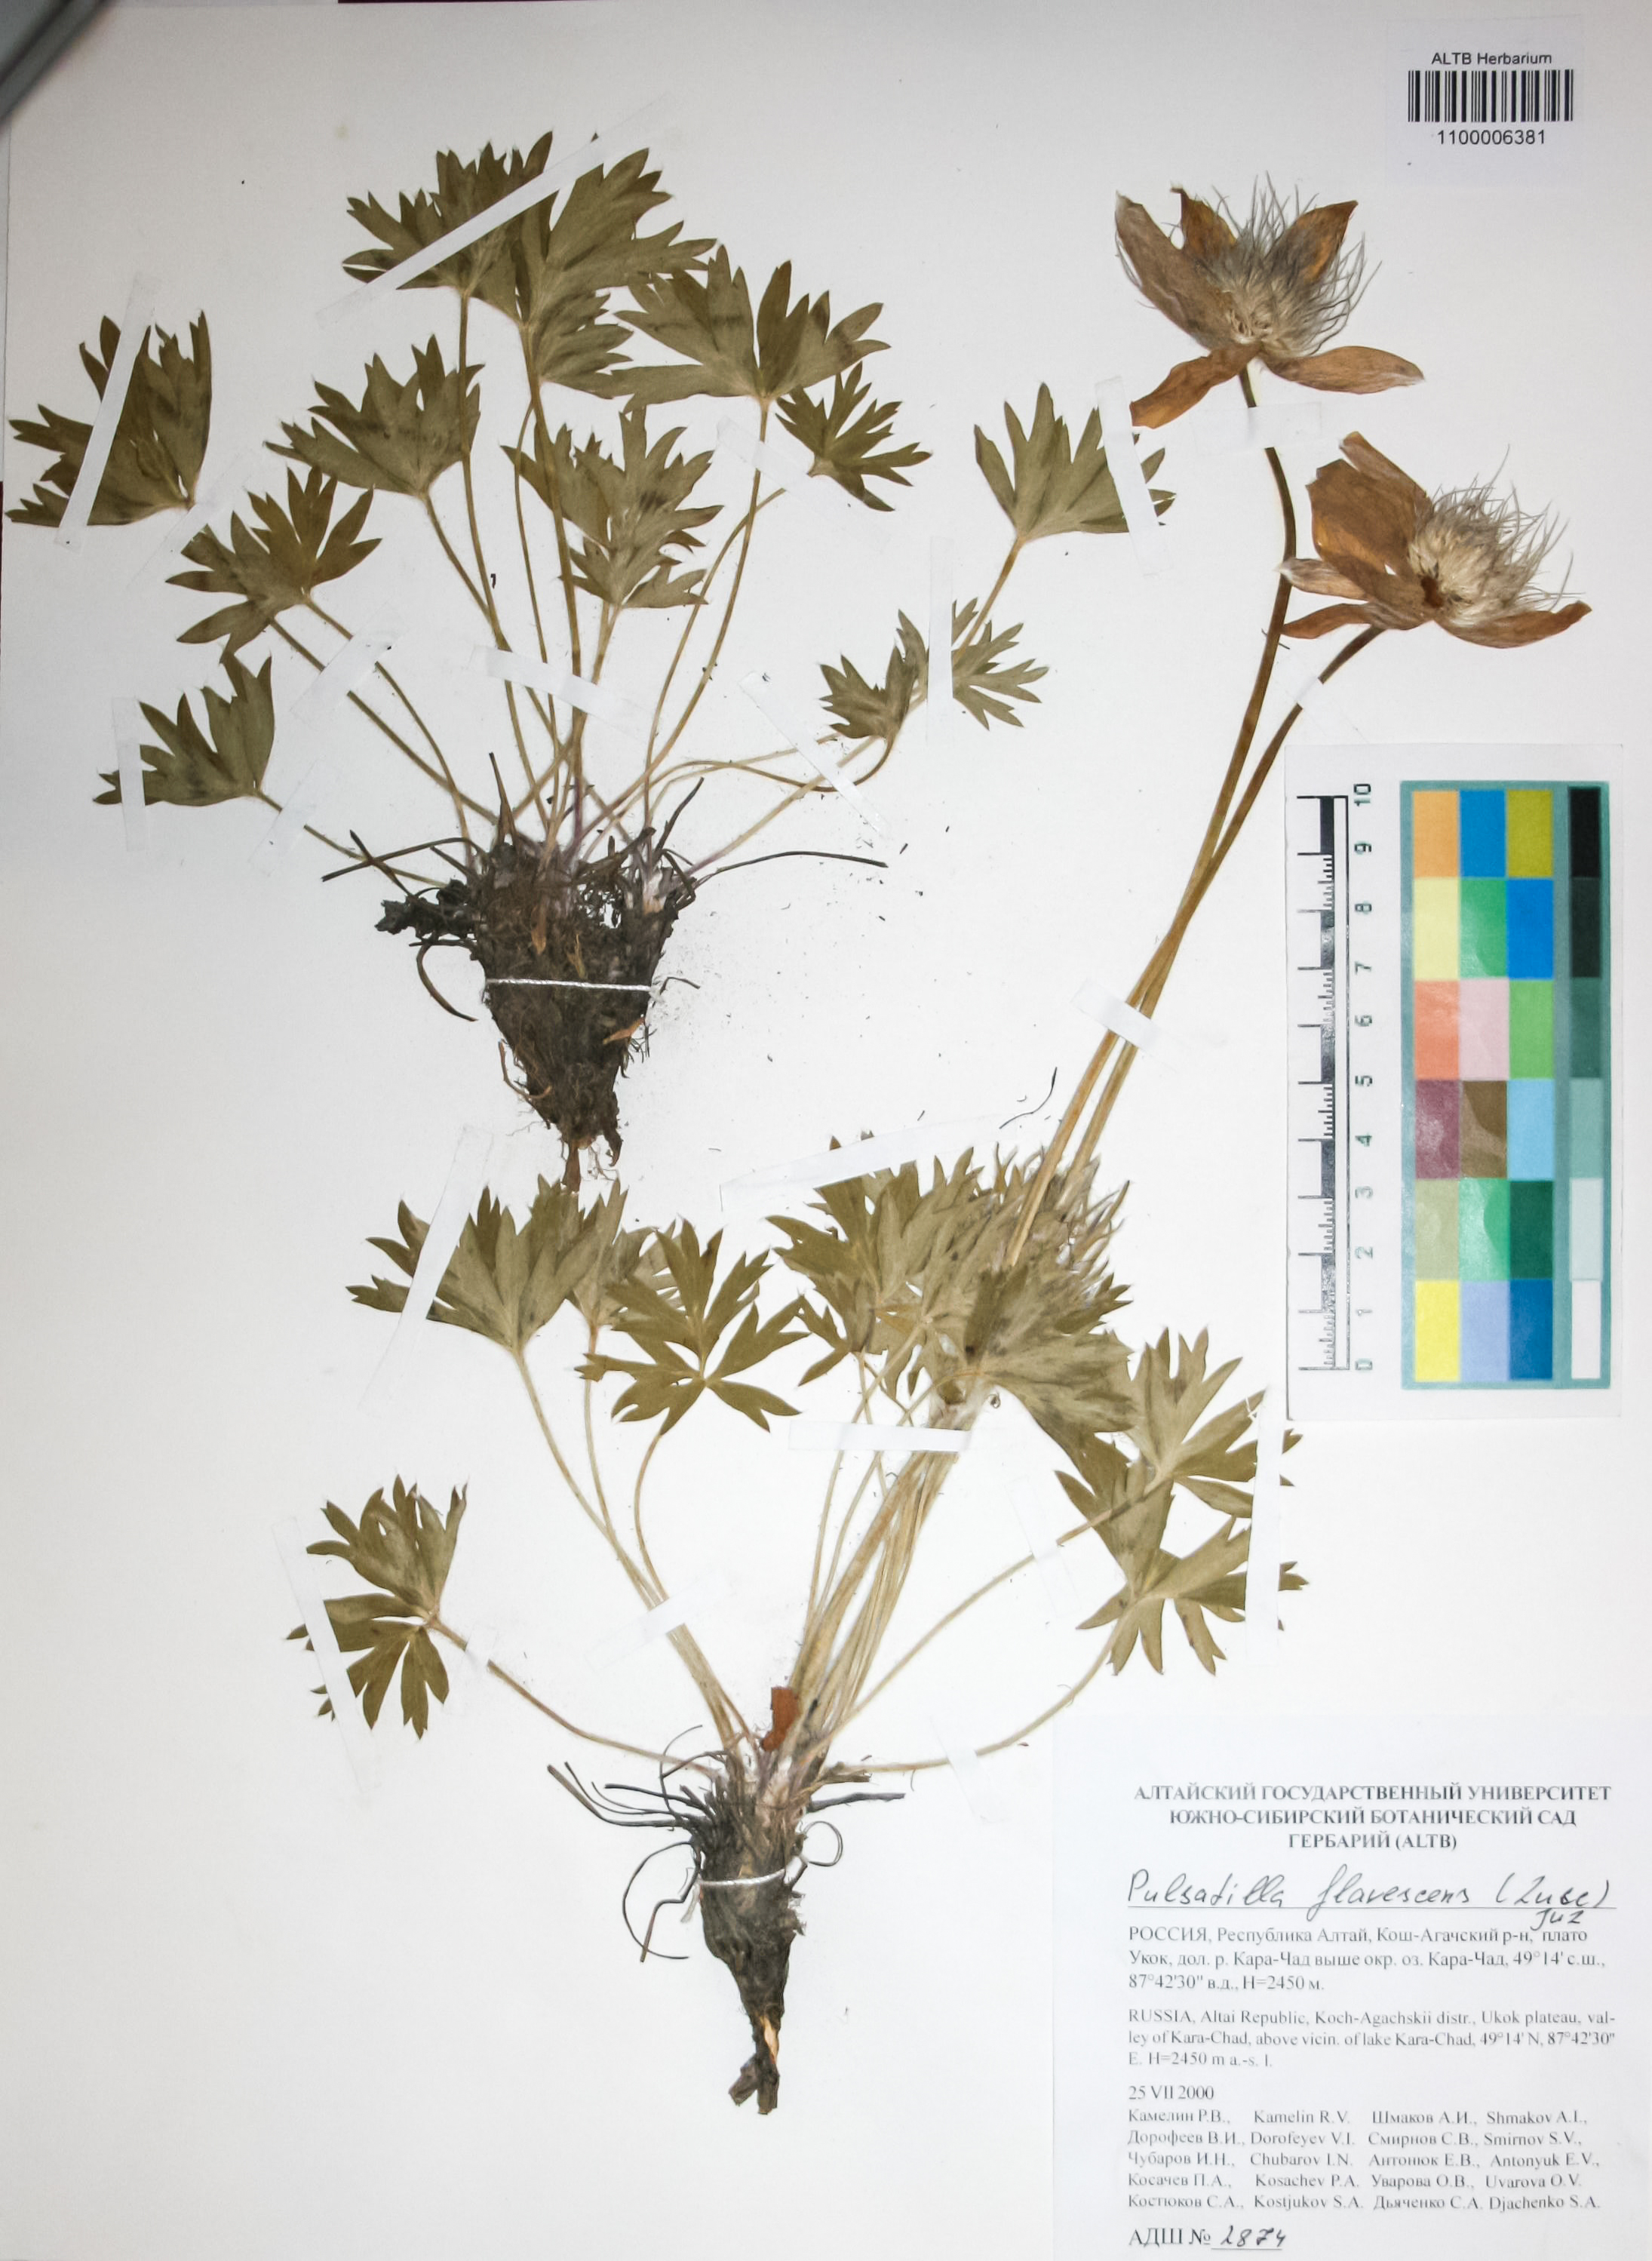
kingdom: Plantae
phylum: Tracheophyta
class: Magnoliopsida
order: Ranunculales
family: Ranunculaceae
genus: Pulsatilla
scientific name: Pulsatilla patens
